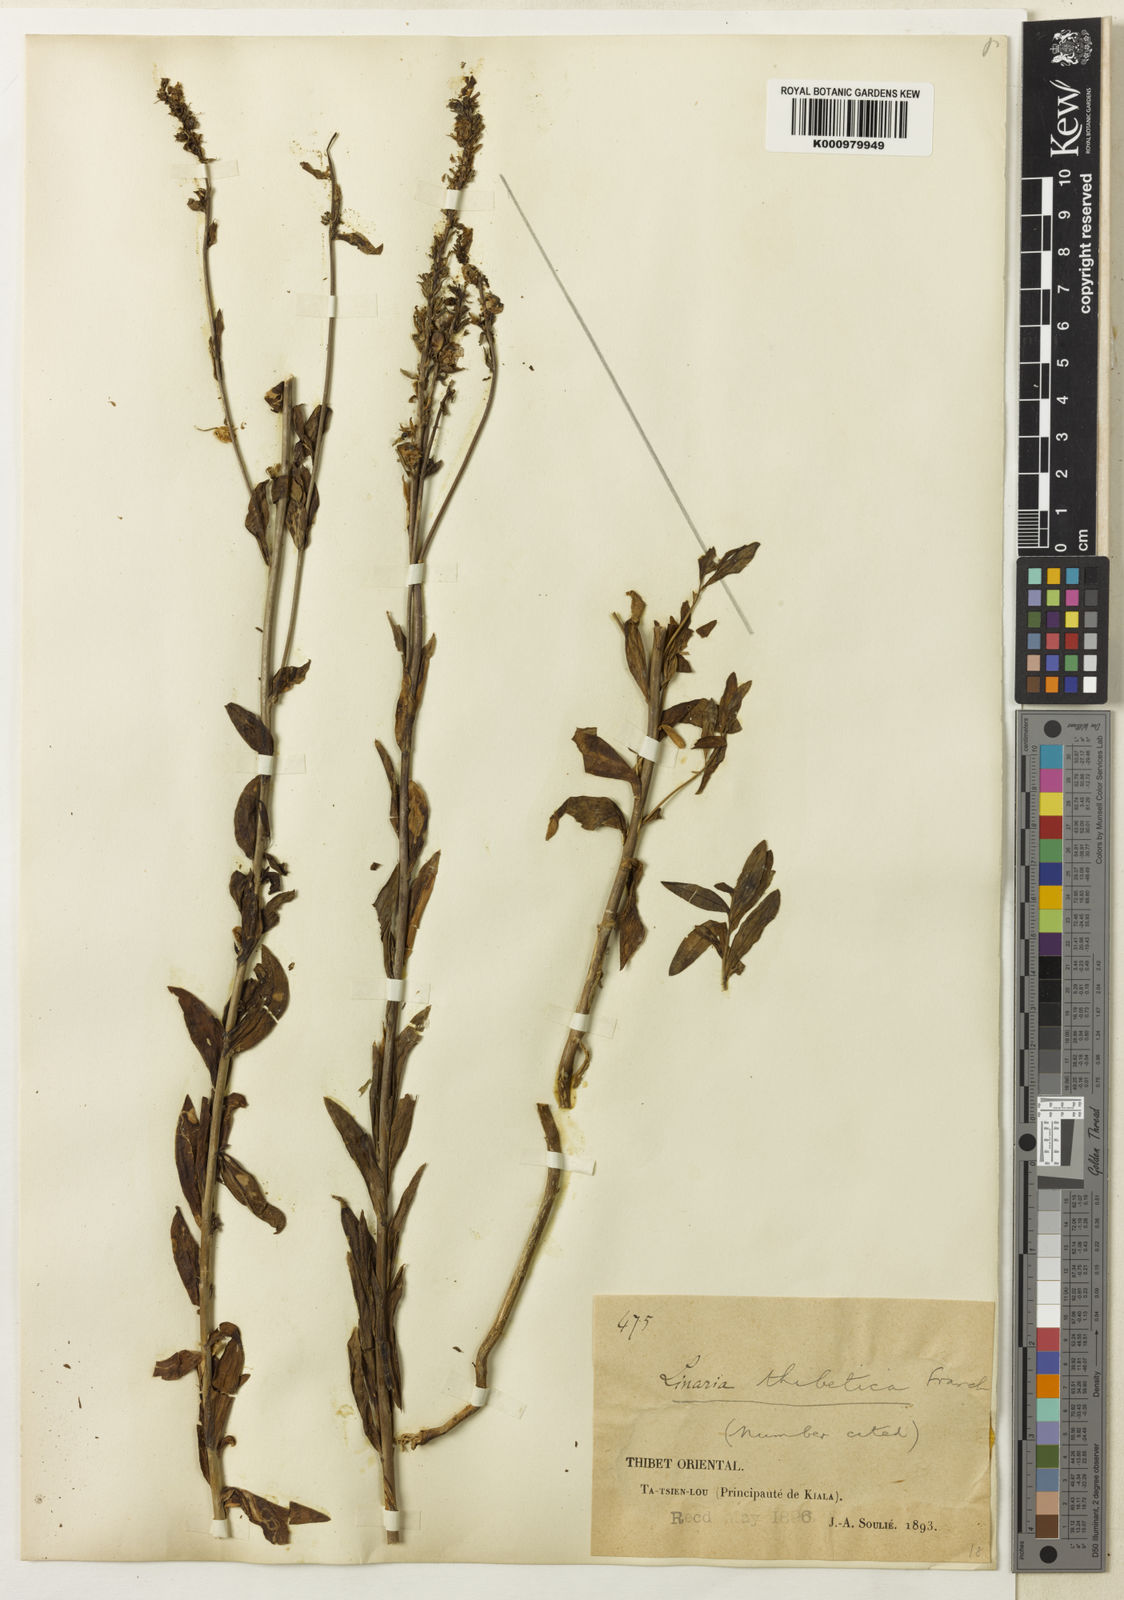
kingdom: Plantae
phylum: Tracheophyta
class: Magnoliopsida
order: Lamiales
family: Plantaginaceae
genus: Linaria
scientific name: Linaria thibetica
